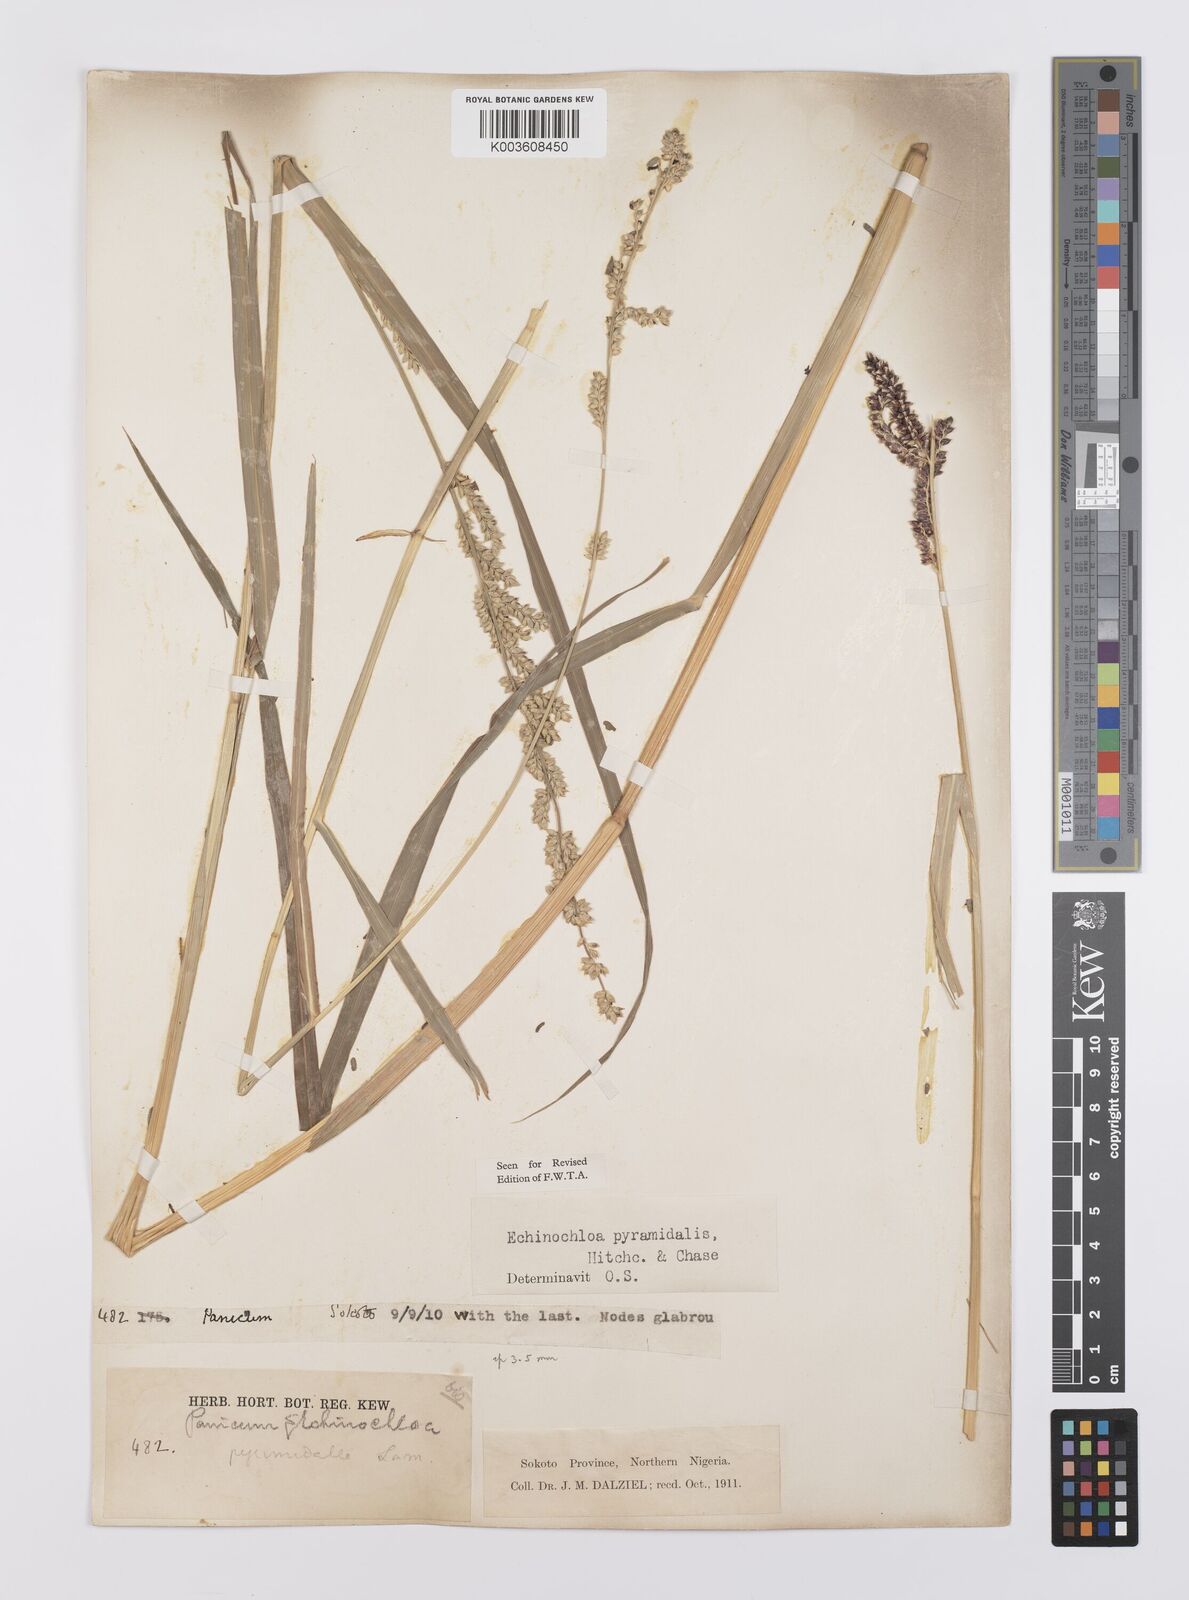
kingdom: Plantae
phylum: Tracheophyta
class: Liliopsida
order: Poales
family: Poaceae
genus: Echinochloa
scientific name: Echinochloa pyramidalis
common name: Antelope grass
